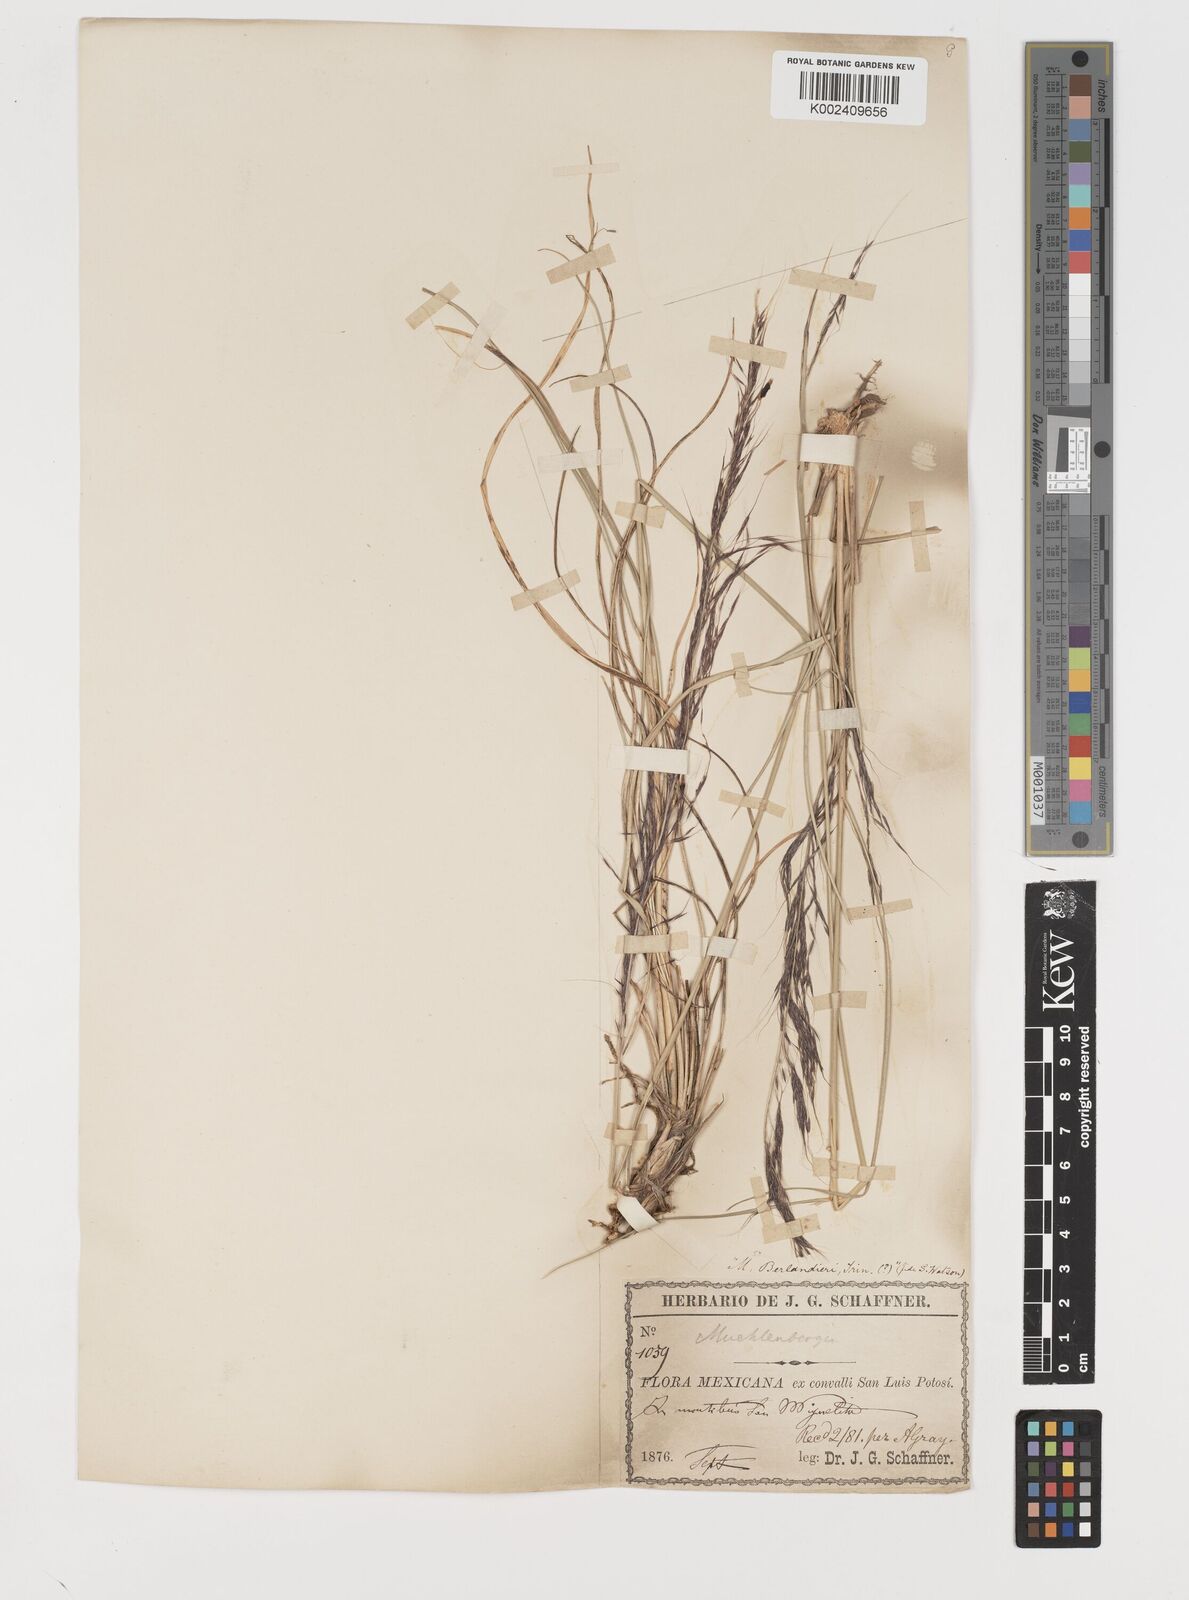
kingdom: Plantae
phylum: Tracheophyta
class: Liliopsida
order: Poales
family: Poaceae
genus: Muhlenbergia
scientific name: Muhlenbergia rigida
